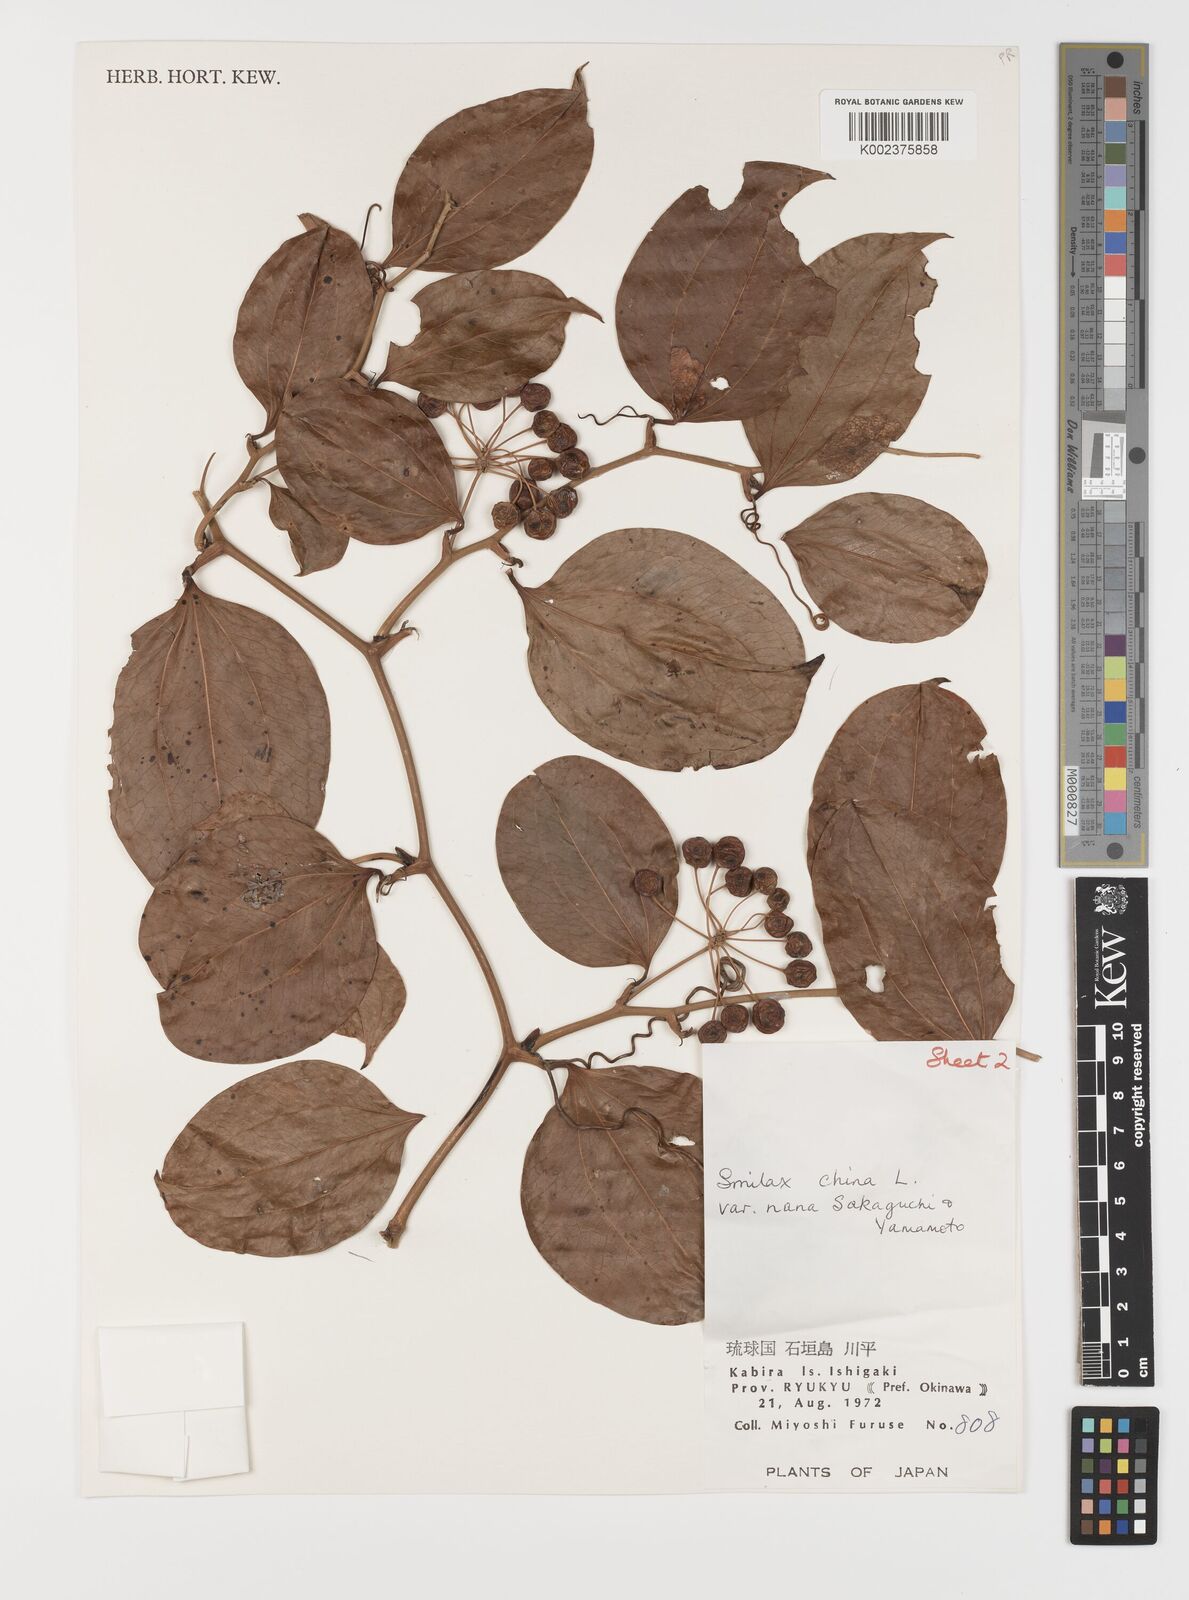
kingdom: Plantae
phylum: Tracheophyta
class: Liliopsida
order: Liliales
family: Smilacaceae
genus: Smilax
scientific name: Smilax china
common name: Chinaroot
